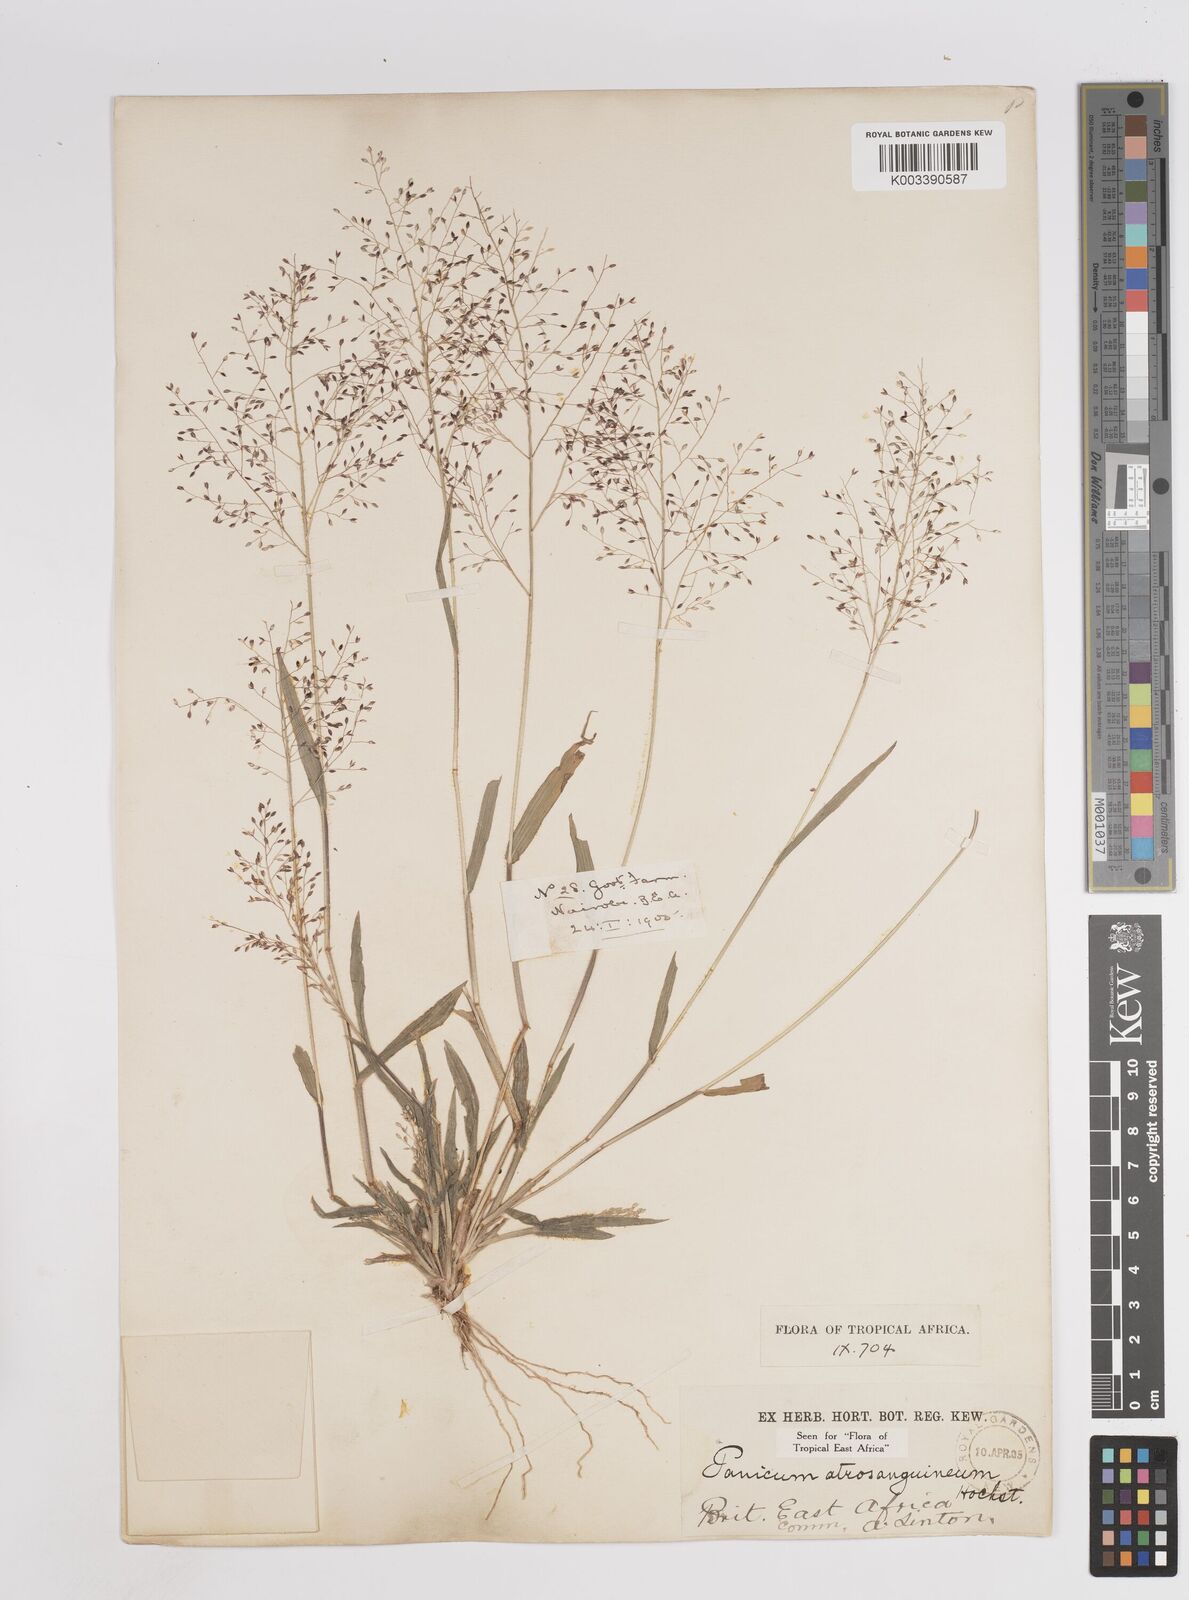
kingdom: Plantae
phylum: Tracheophyta
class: Liliopsida
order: Poales
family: Poaceae
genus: Panicum
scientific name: Panicum atrosanguineum
